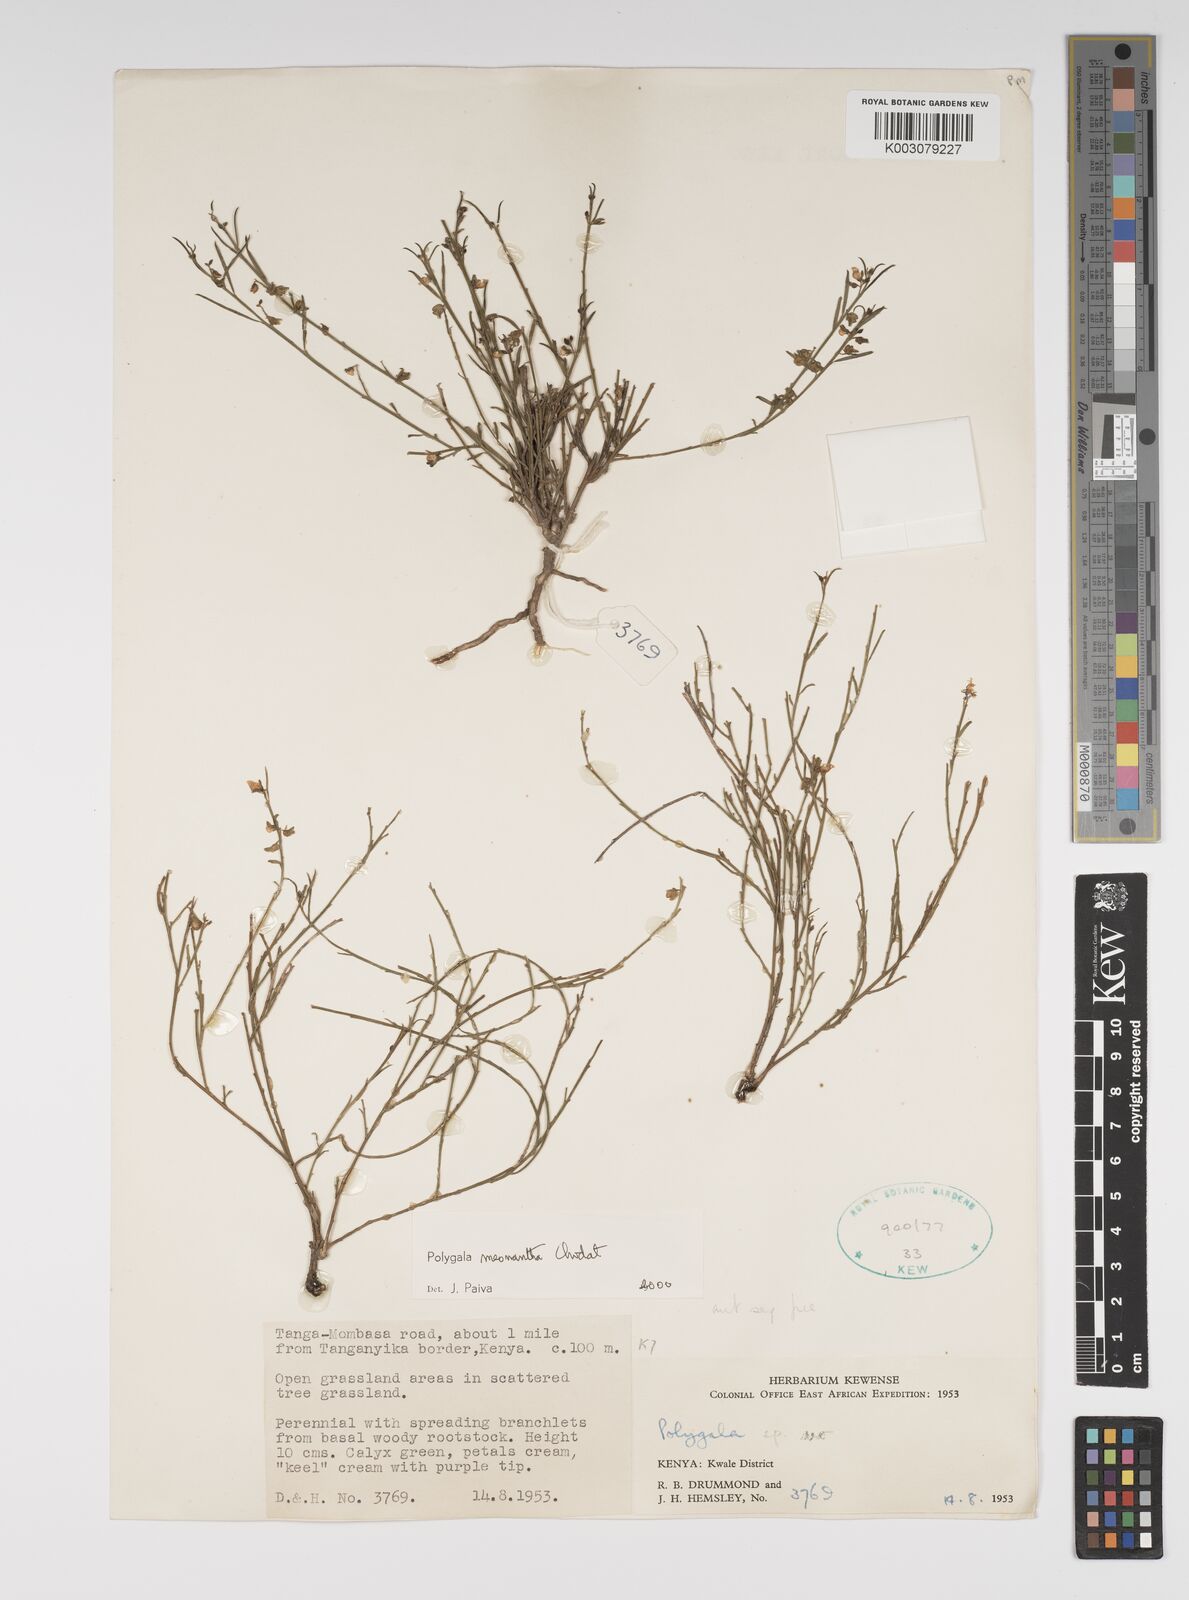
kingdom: Plantae
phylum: Tracheophyta
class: Magnoliopsida
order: Fabales
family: Polygalaceae
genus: Polygala
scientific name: Polygala meonantha
